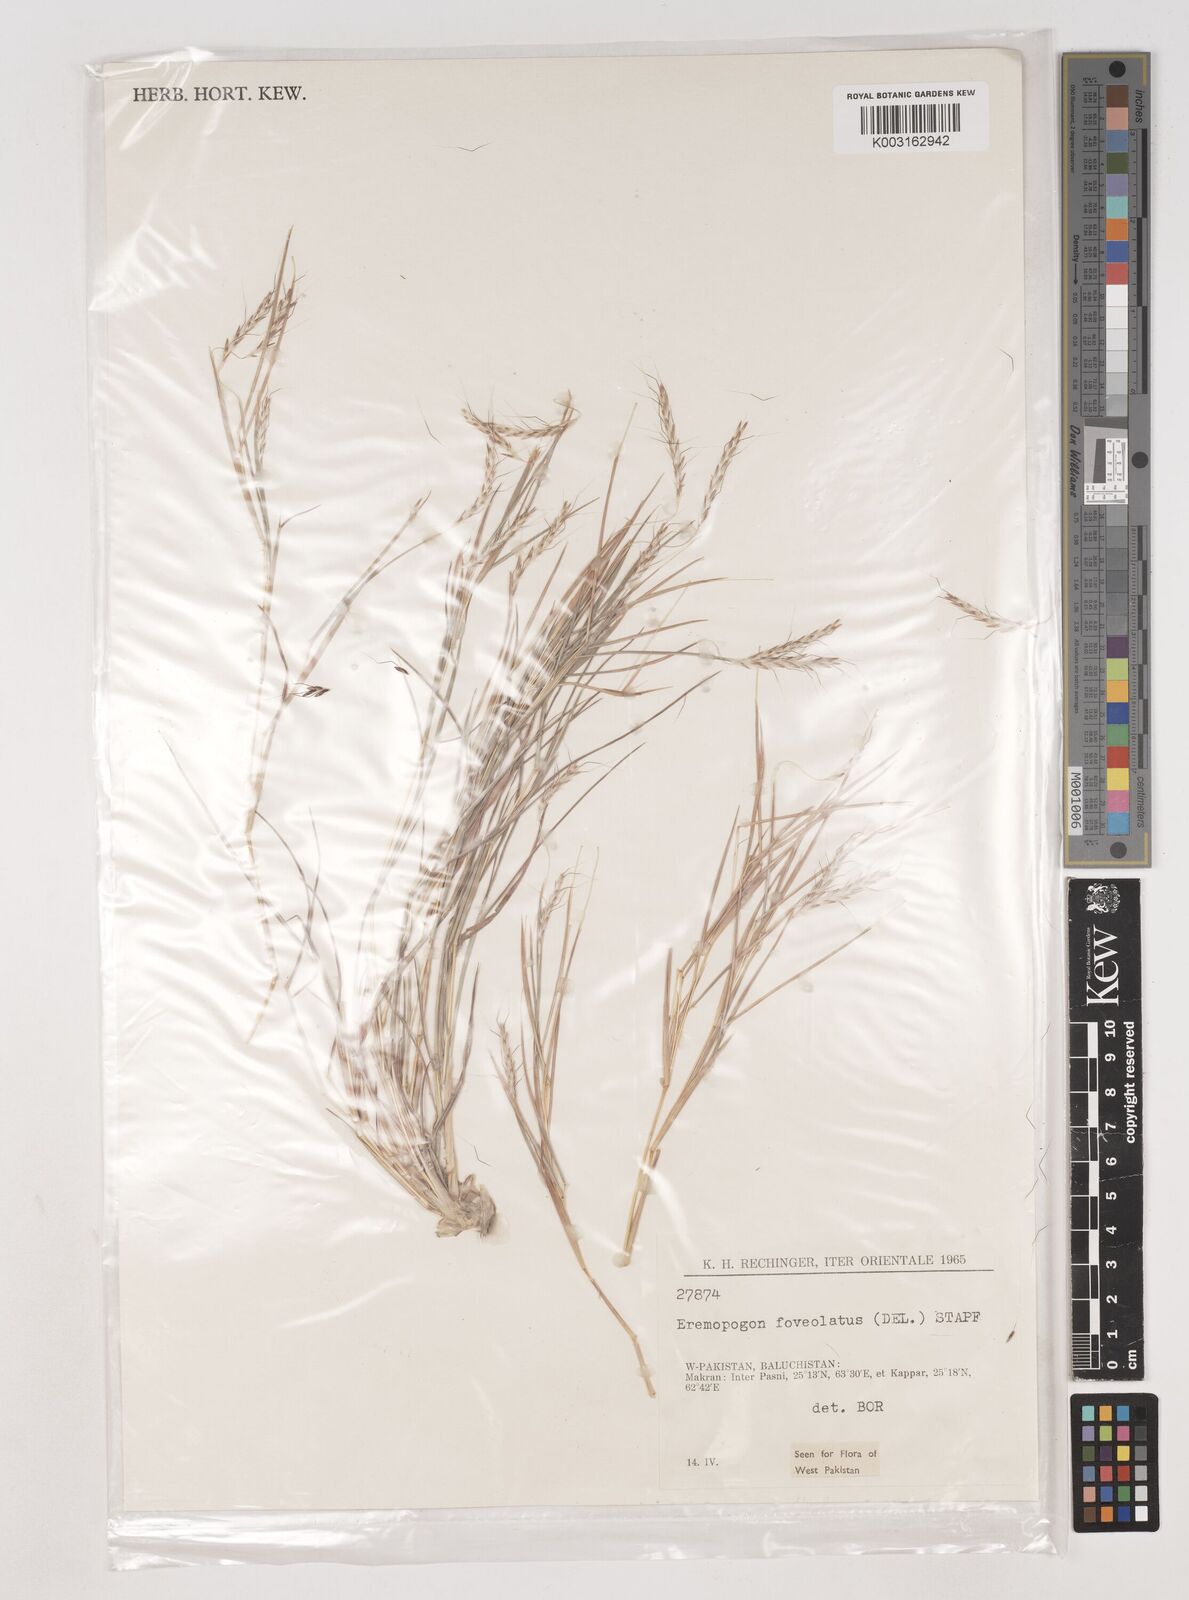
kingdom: Plantae
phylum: Tracheophyta
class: Liliopsida
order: Poales
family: Poaceae
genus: Dichanthium
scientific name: Dichanthium
